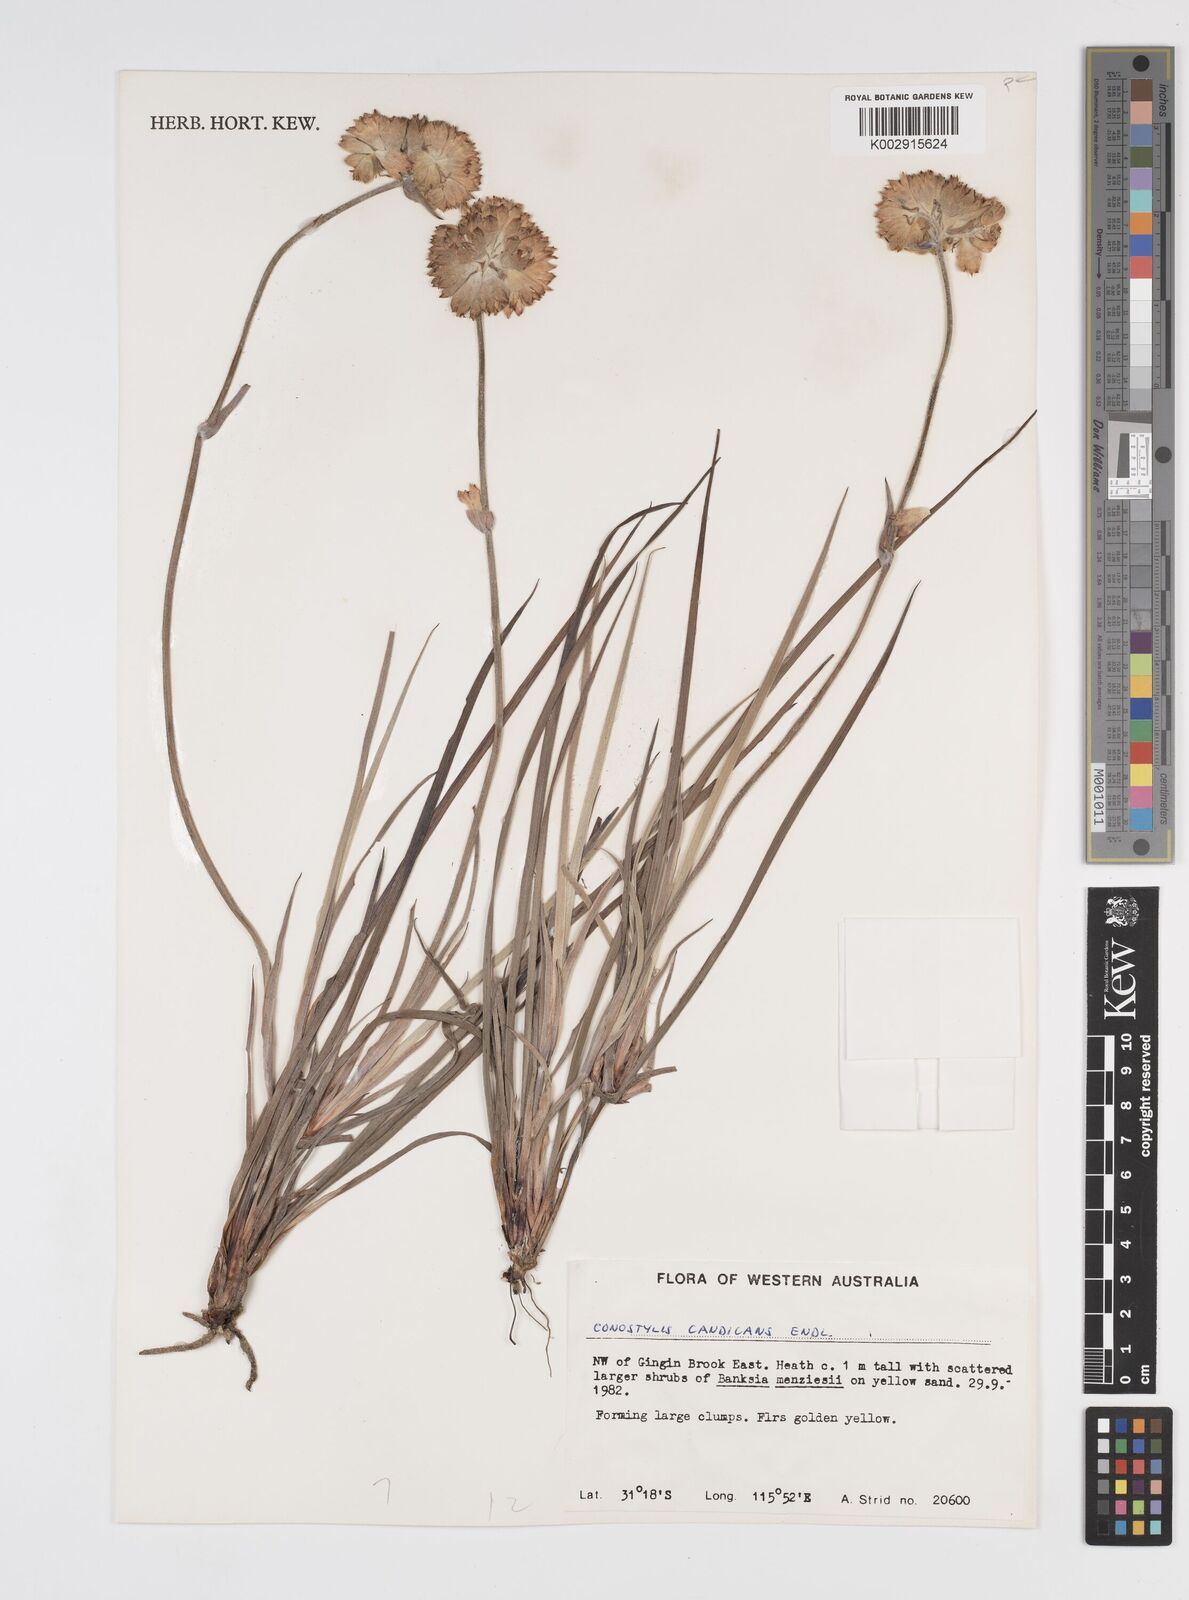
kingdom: Plantae
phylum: Tracheophyta
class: Liliopsida
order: Commelinales
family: Haemodoraceae
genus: Conostylis
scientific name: Conostylis candicans
